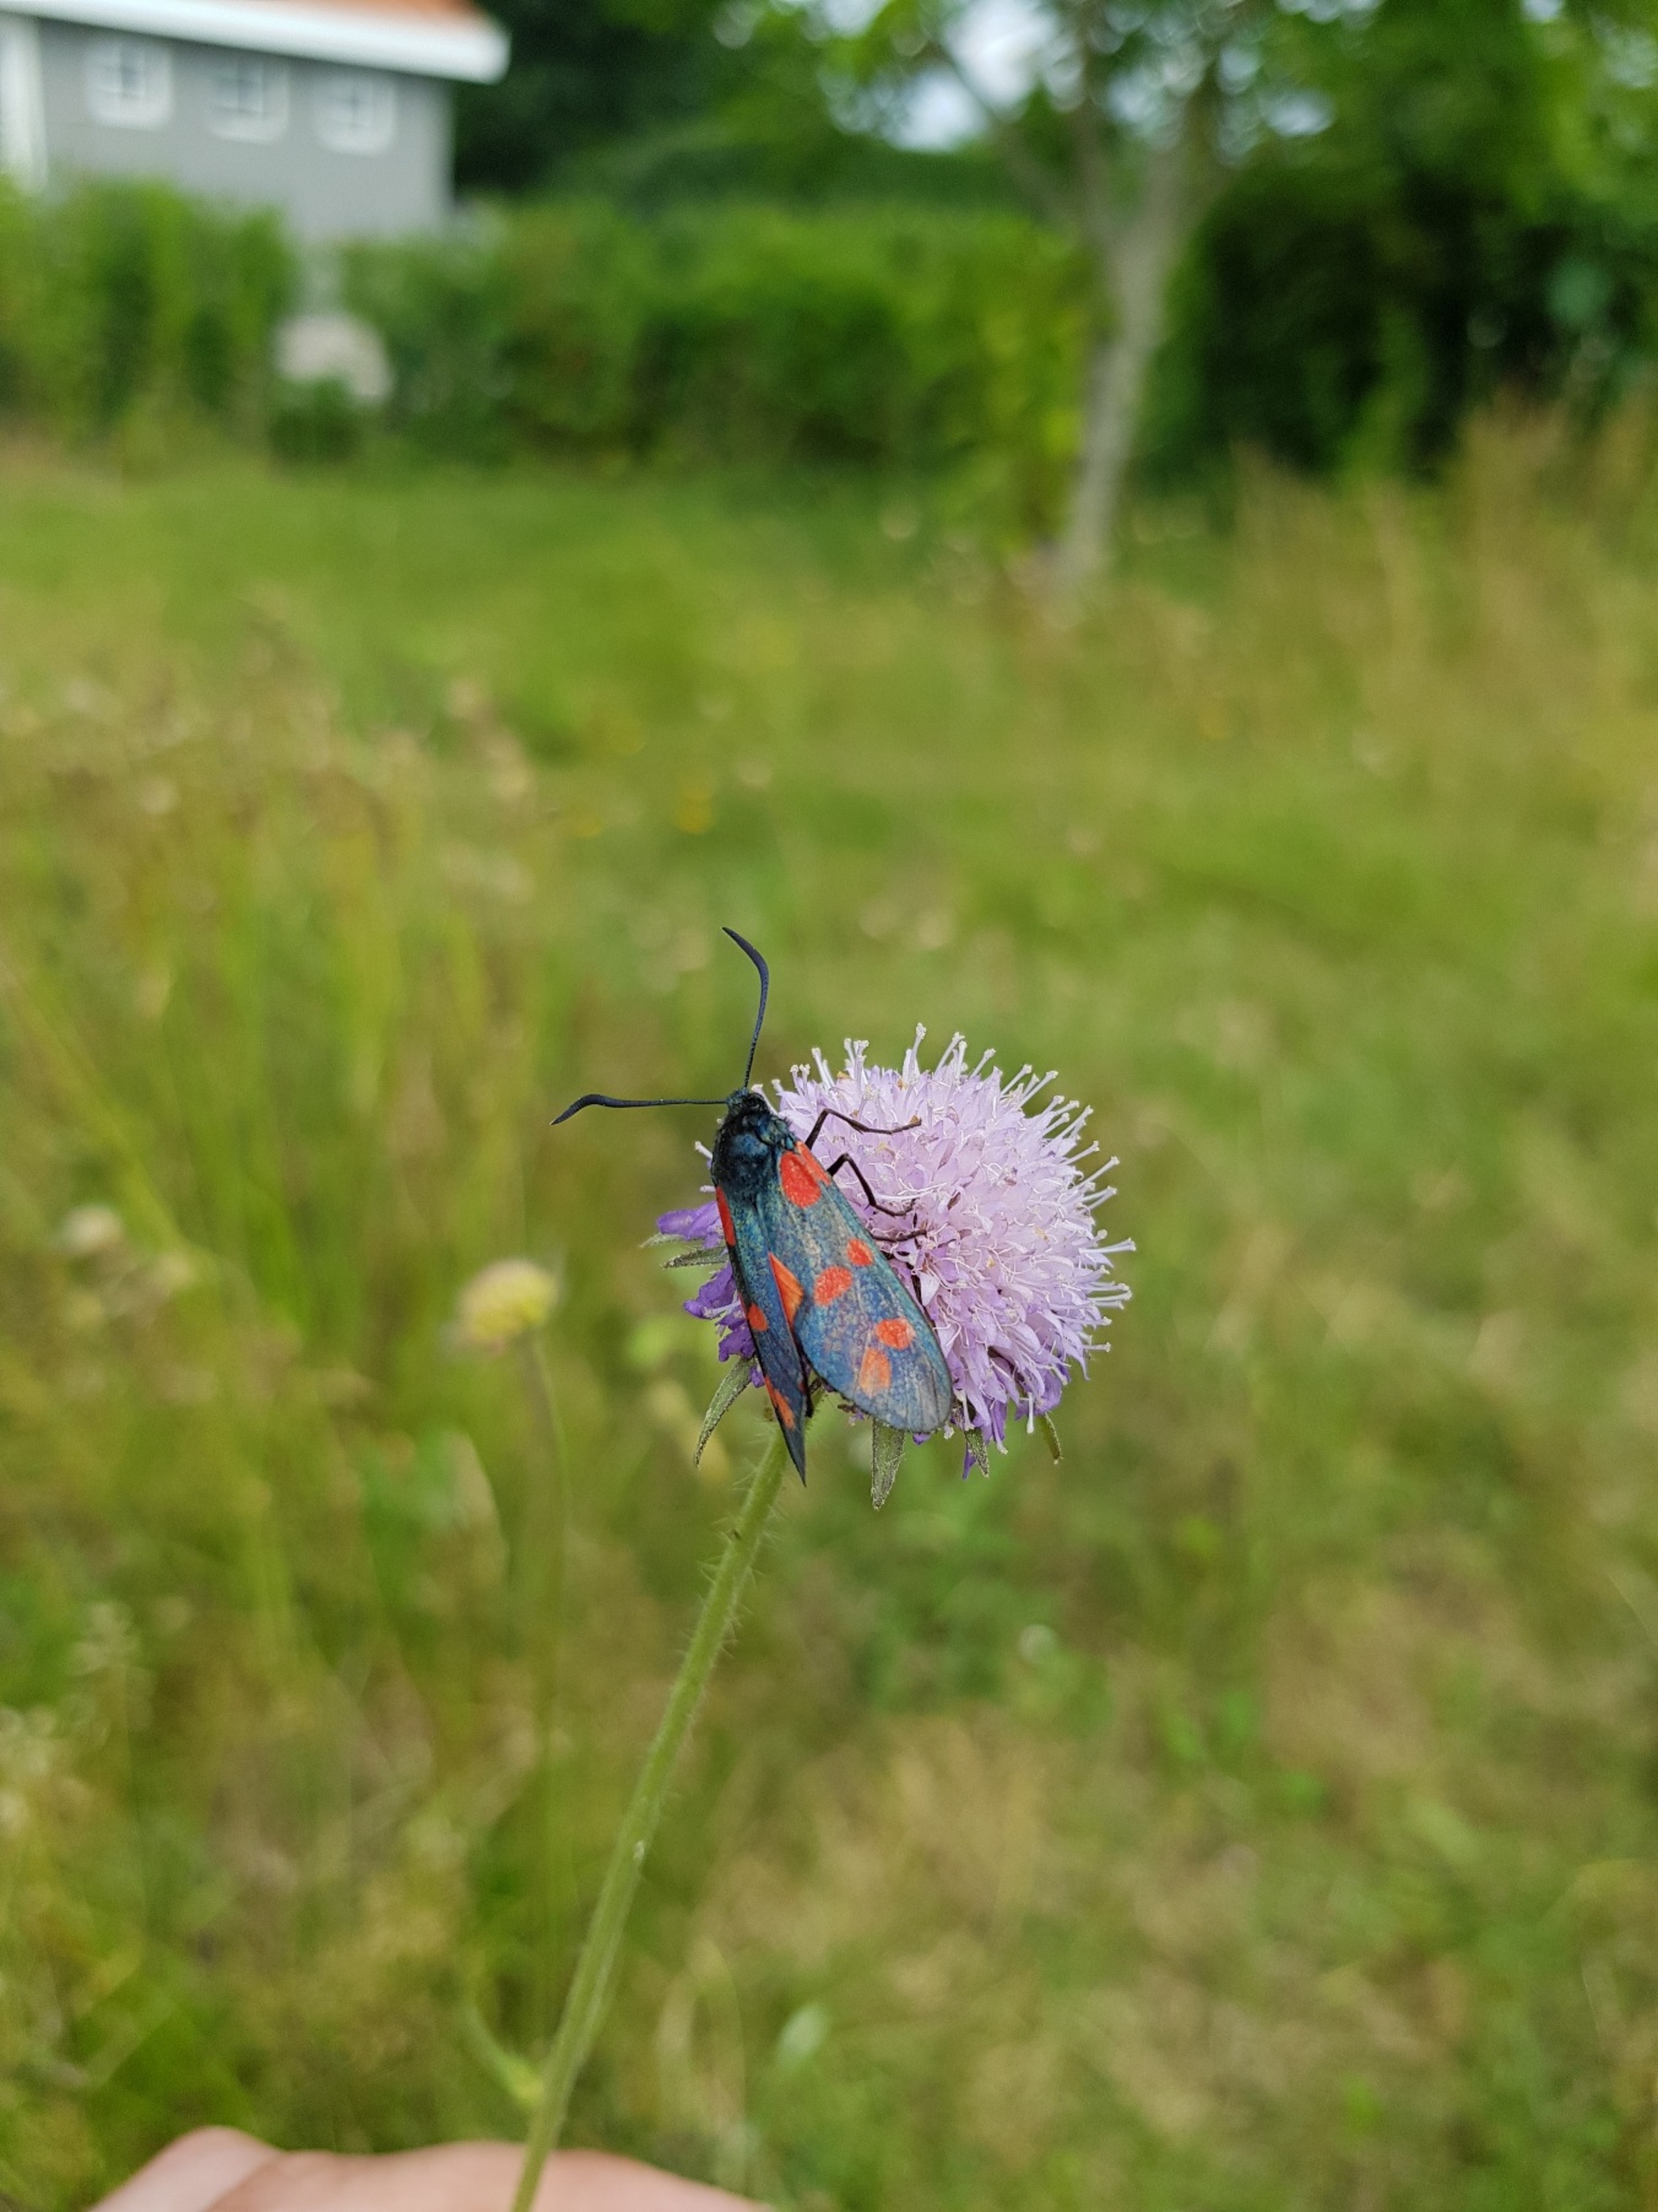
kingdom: Animalia
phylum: Arthropoda
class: Insecta
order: Lepidoptera
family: Zygaenidae
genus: Zygaena
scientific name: Zygaena filipendulae
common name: Seksplettet køllesværmer
